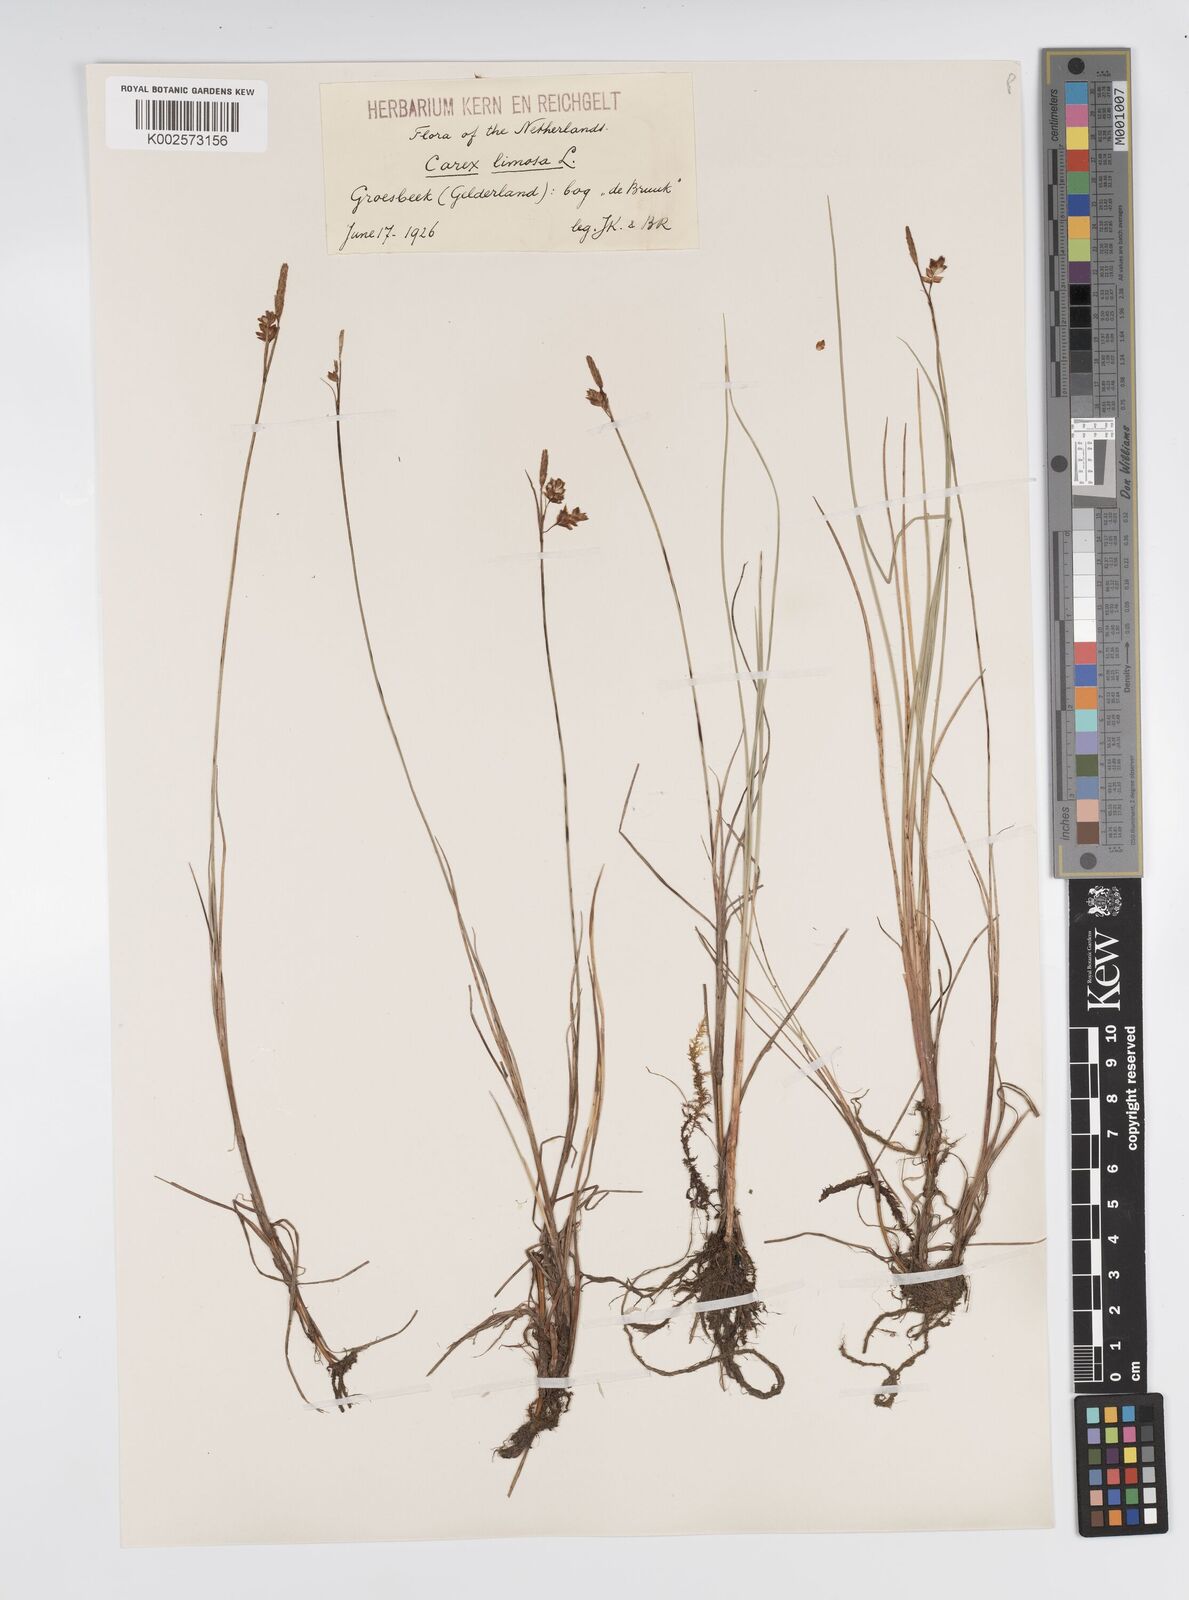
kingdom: Plantae
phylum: Tracheophyta
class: Liliopsida
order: Poales
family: Cyperaceae
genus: Carex
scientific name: Carex limosa
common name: Bog sedge
